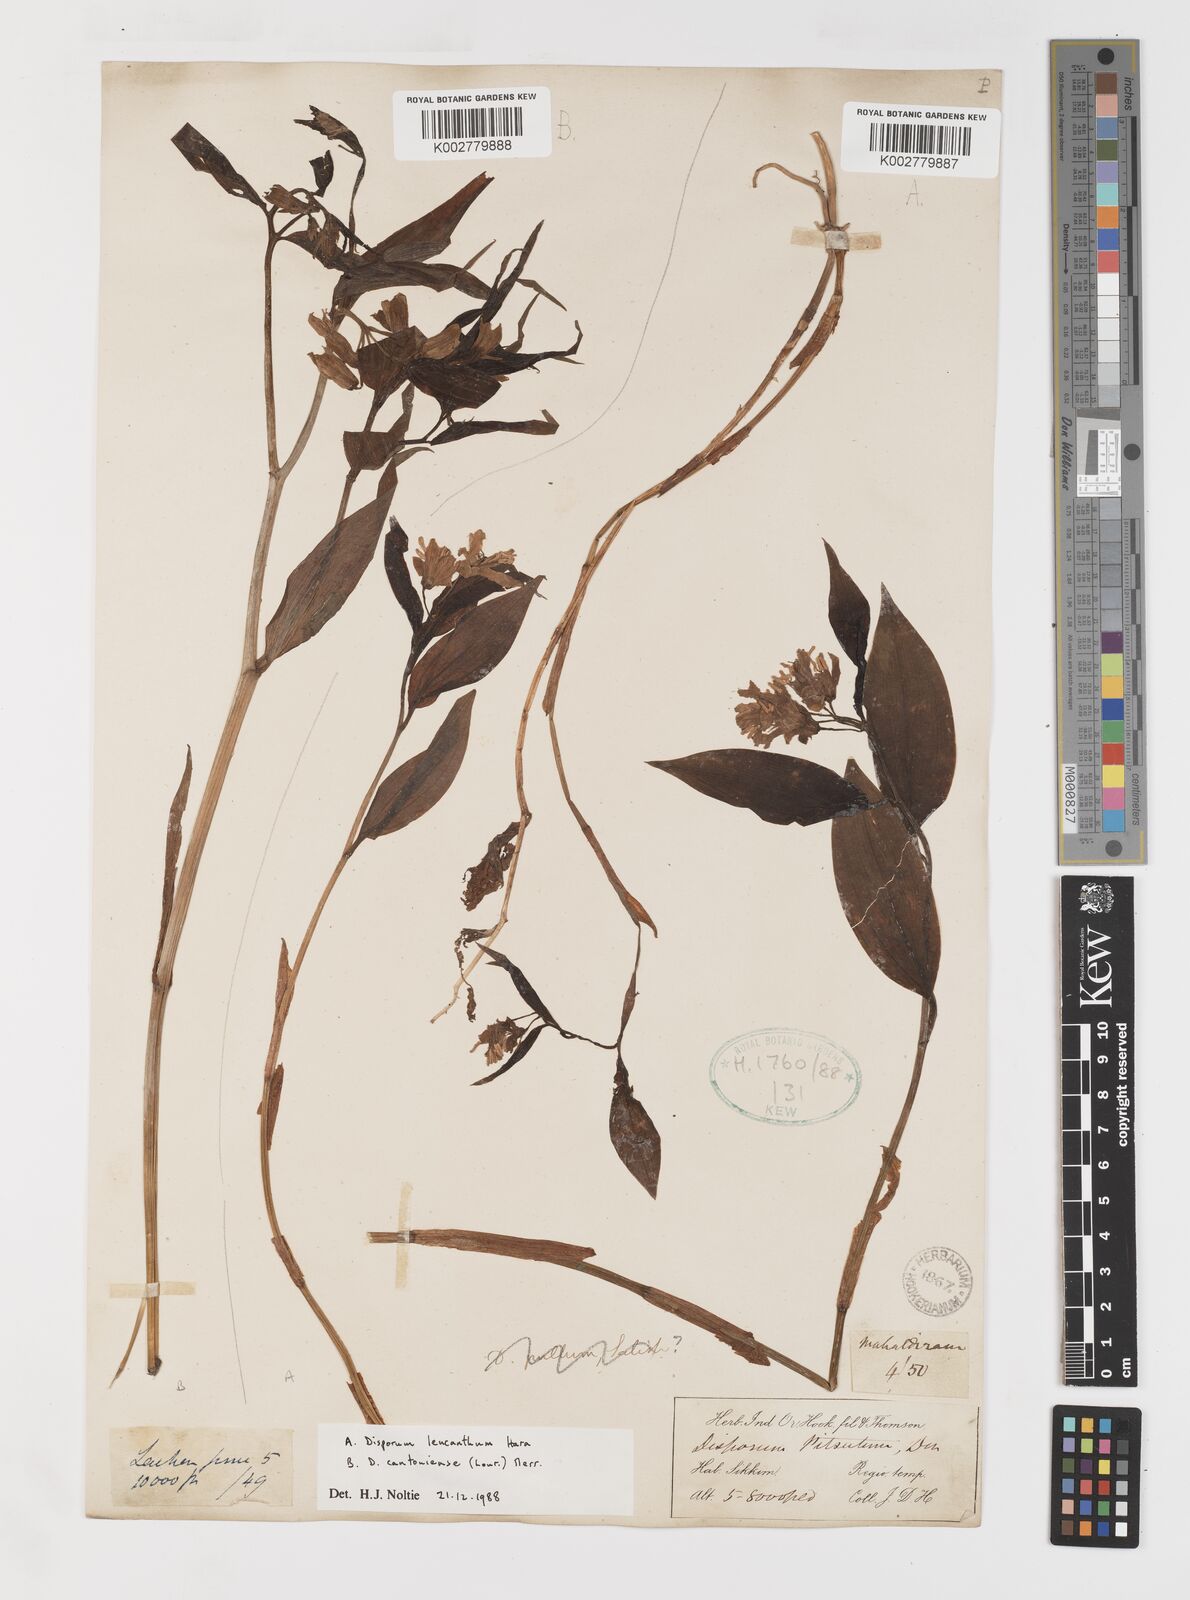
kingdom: Plantae
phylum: Tracheophyta
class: Liliopsida
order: Liliales
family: Colchicaceae
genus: Disporum
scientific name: Disporum leucanthum
